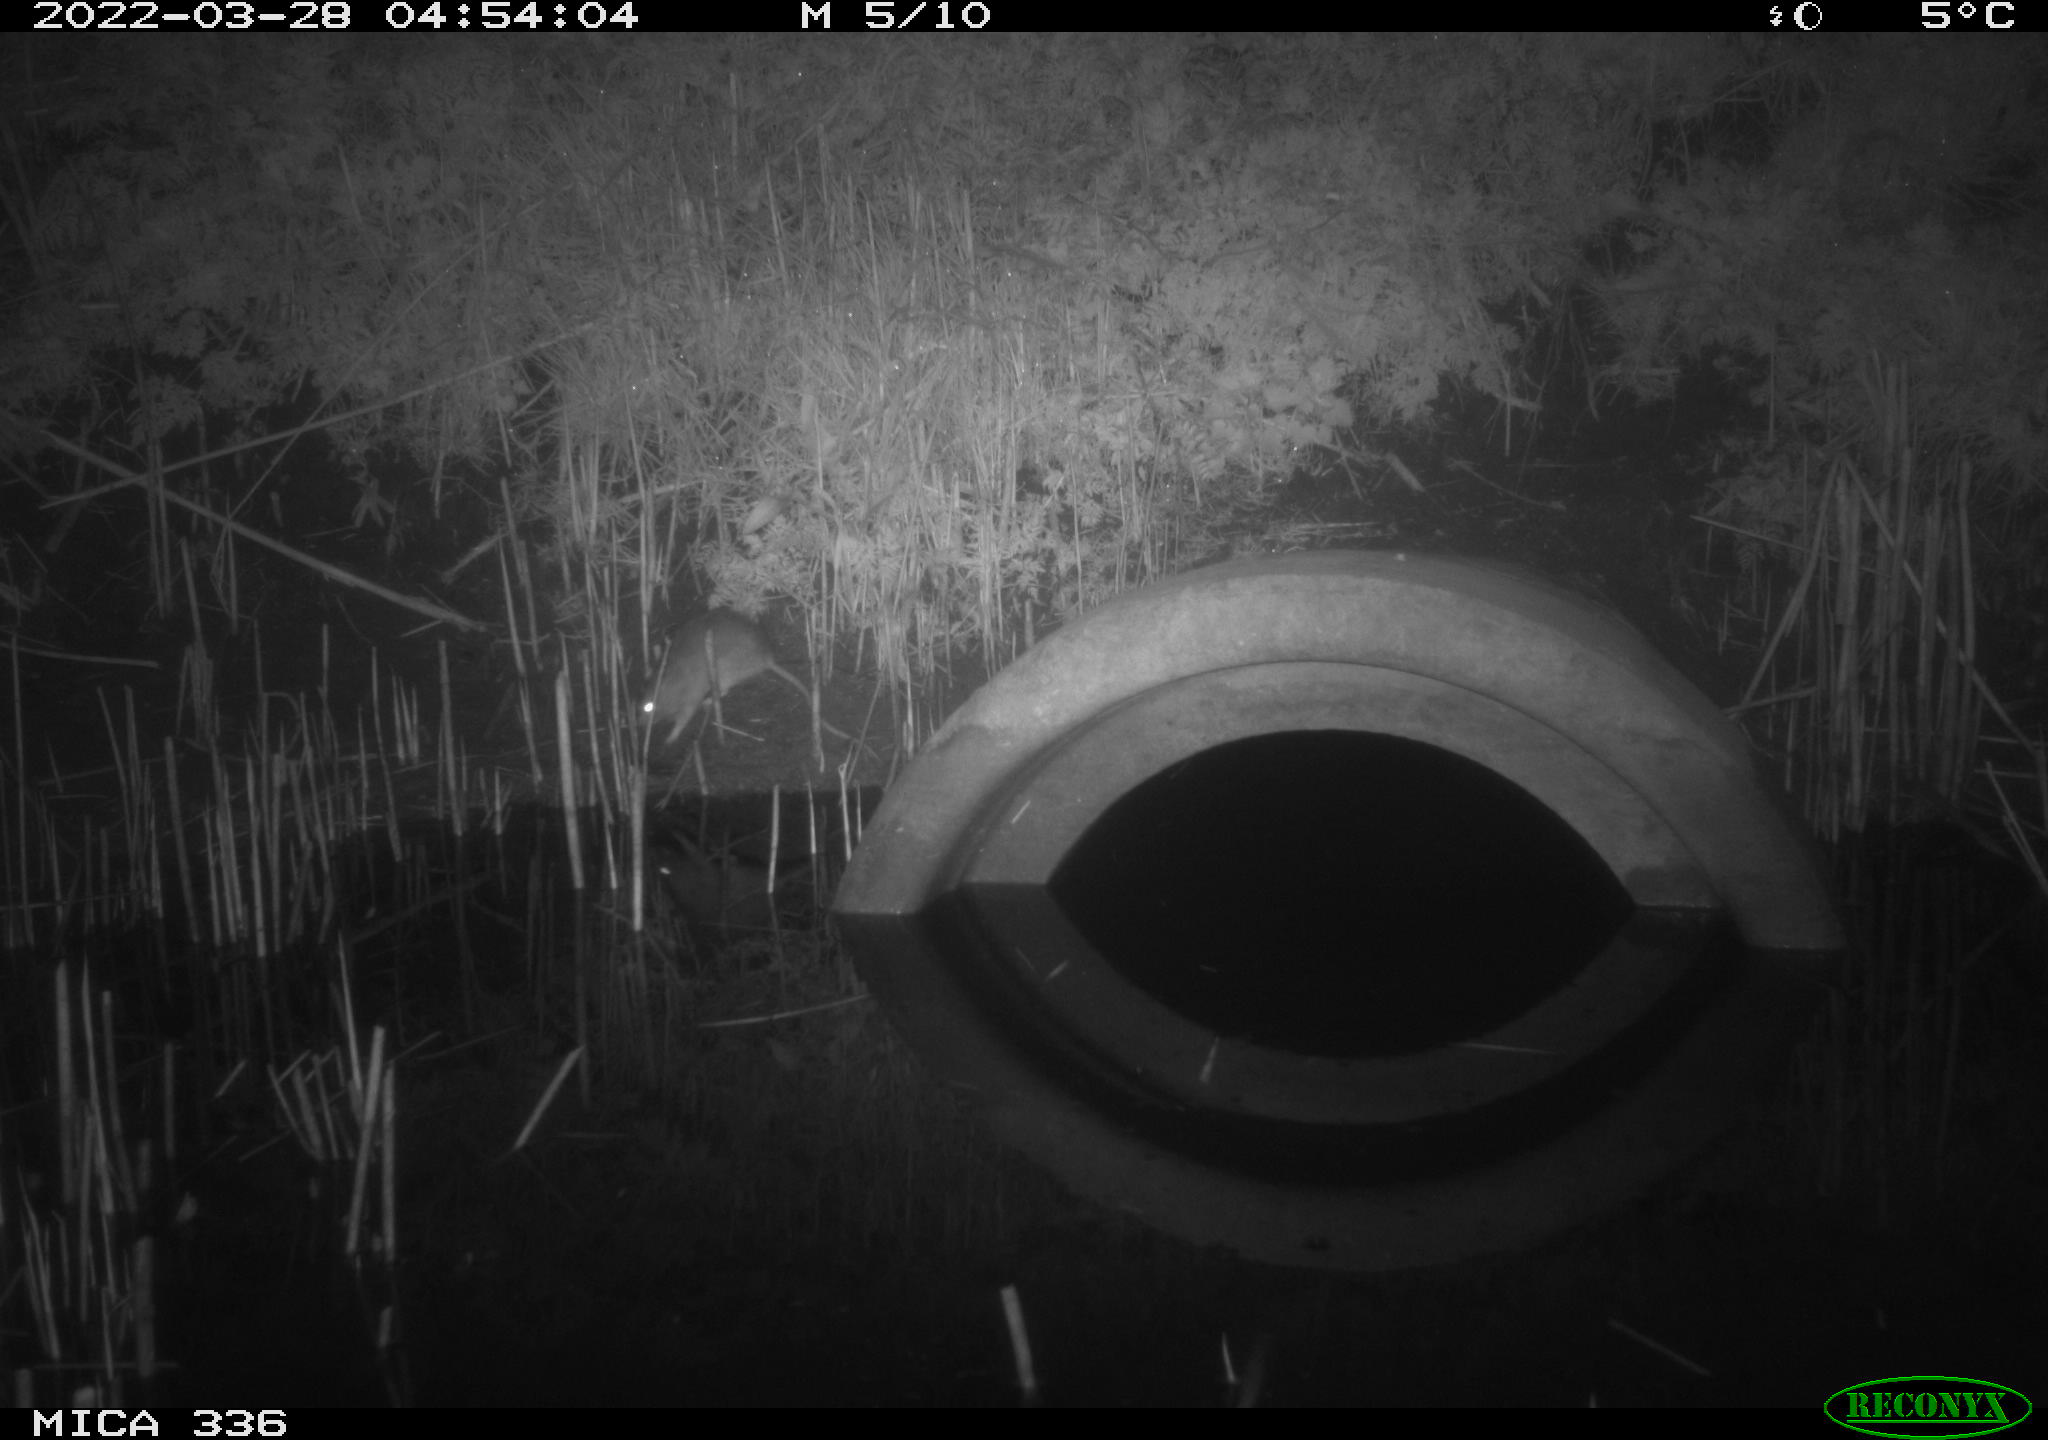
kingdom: Animalia
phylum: Chordata
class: Mammalia
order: Rodentia
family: Muridae
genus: Rattus
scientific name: Rattus norvegicus
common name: Brown rat
